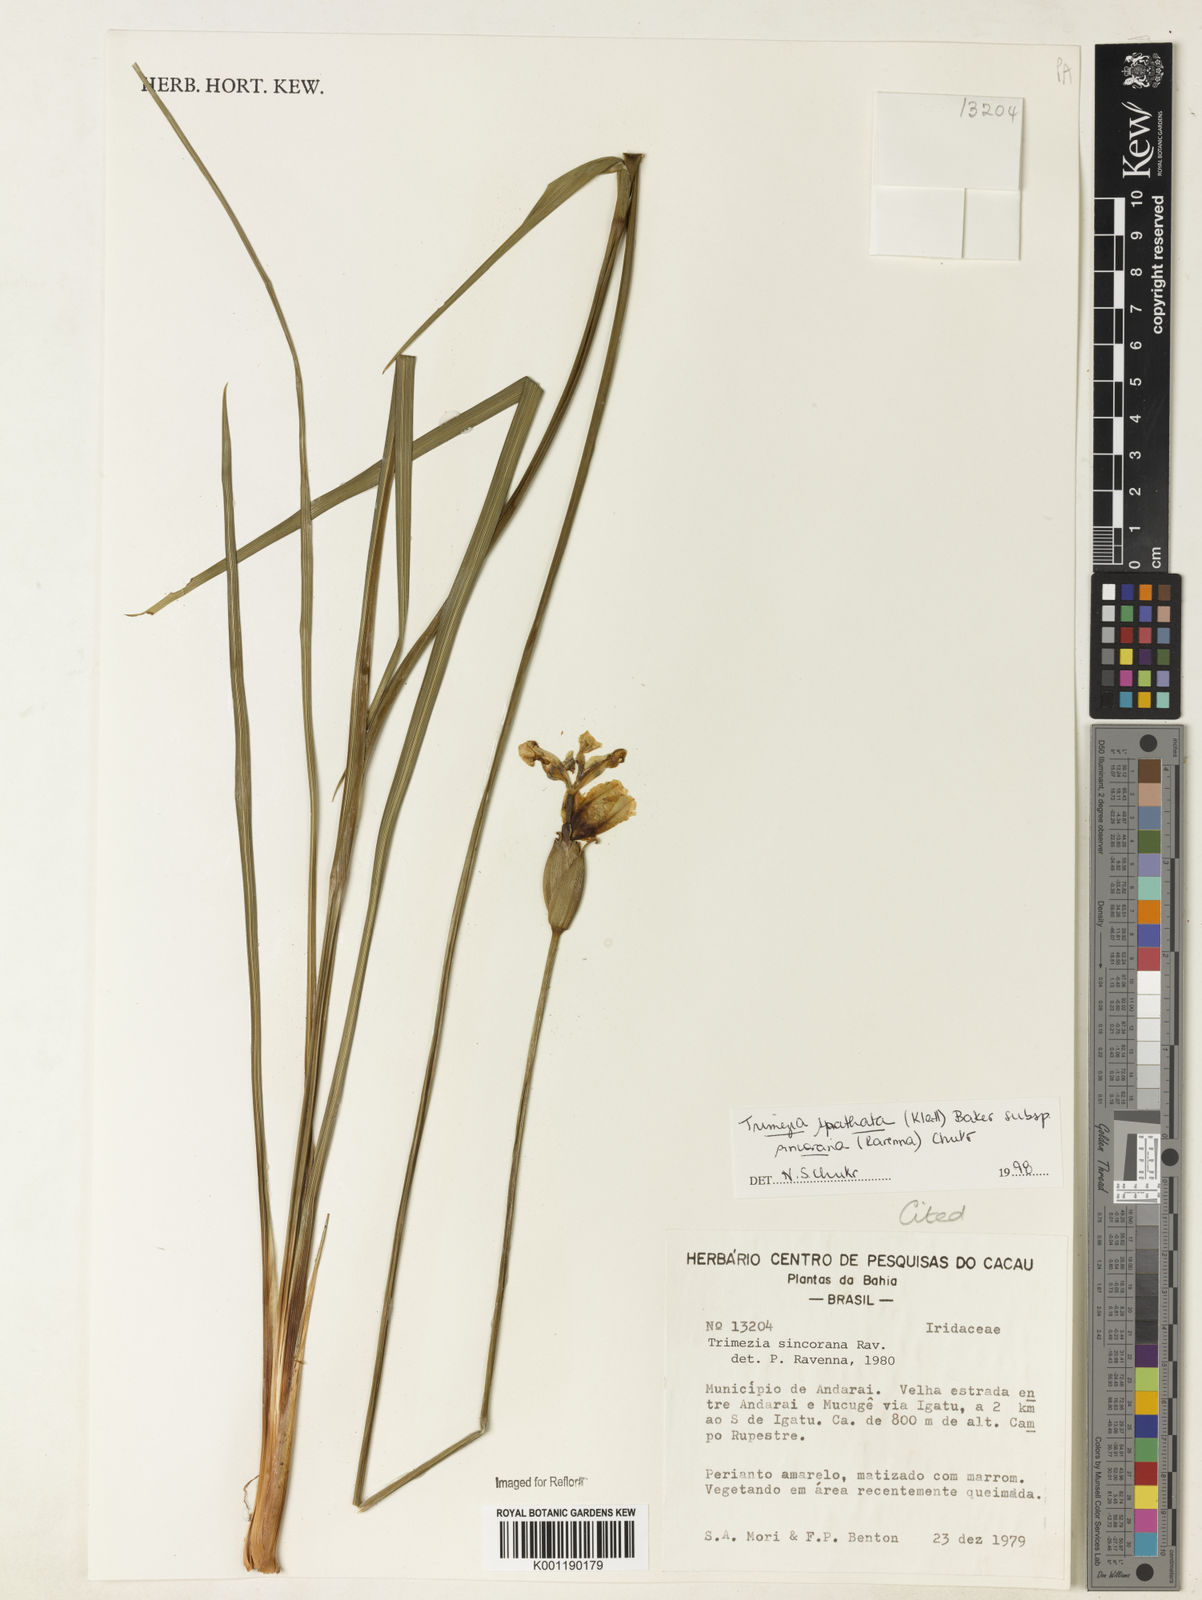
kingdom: Plantae
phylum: Tracheophyta
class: Liliopsida
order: Asparagales
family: Iridaceae
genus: Trimezia
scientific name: Trimezia spathata
